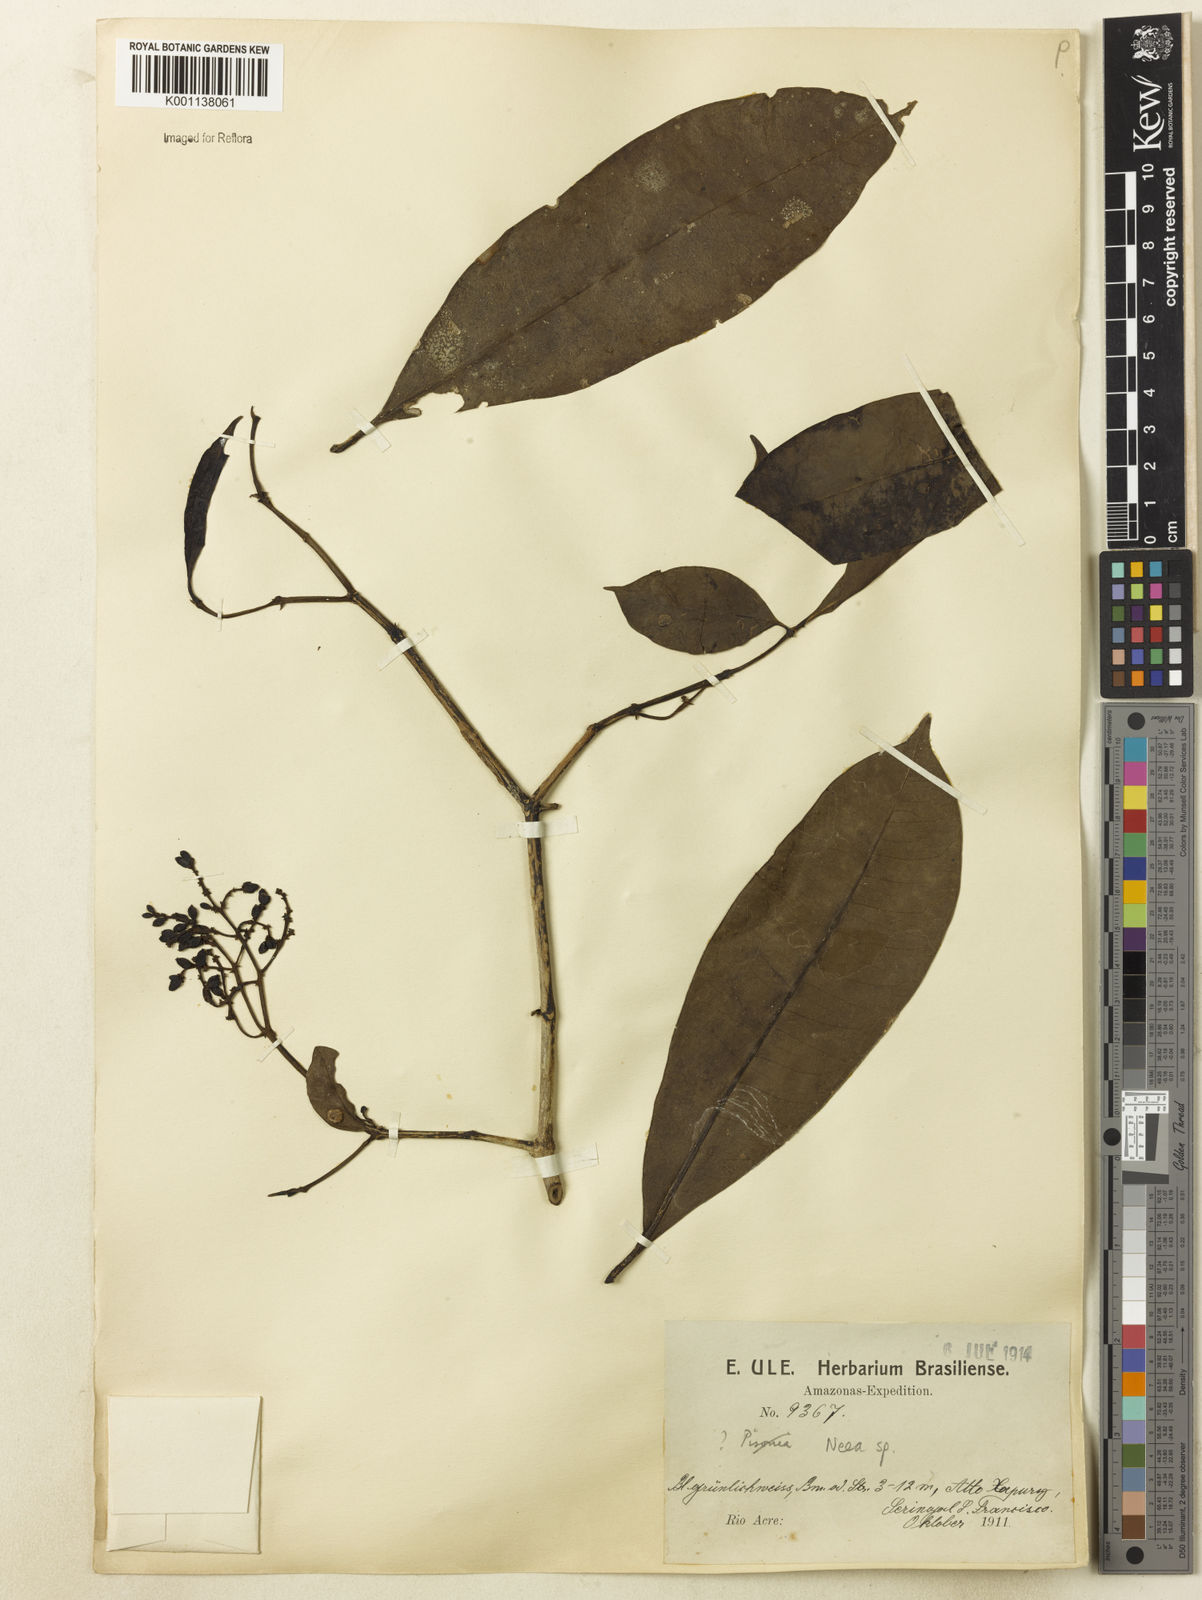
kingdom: Plantae
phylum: Tracheophyta
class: Magnoliopsida
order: Caryophyllales
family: Nyctaginaceae
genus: Neea
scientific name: Neea
